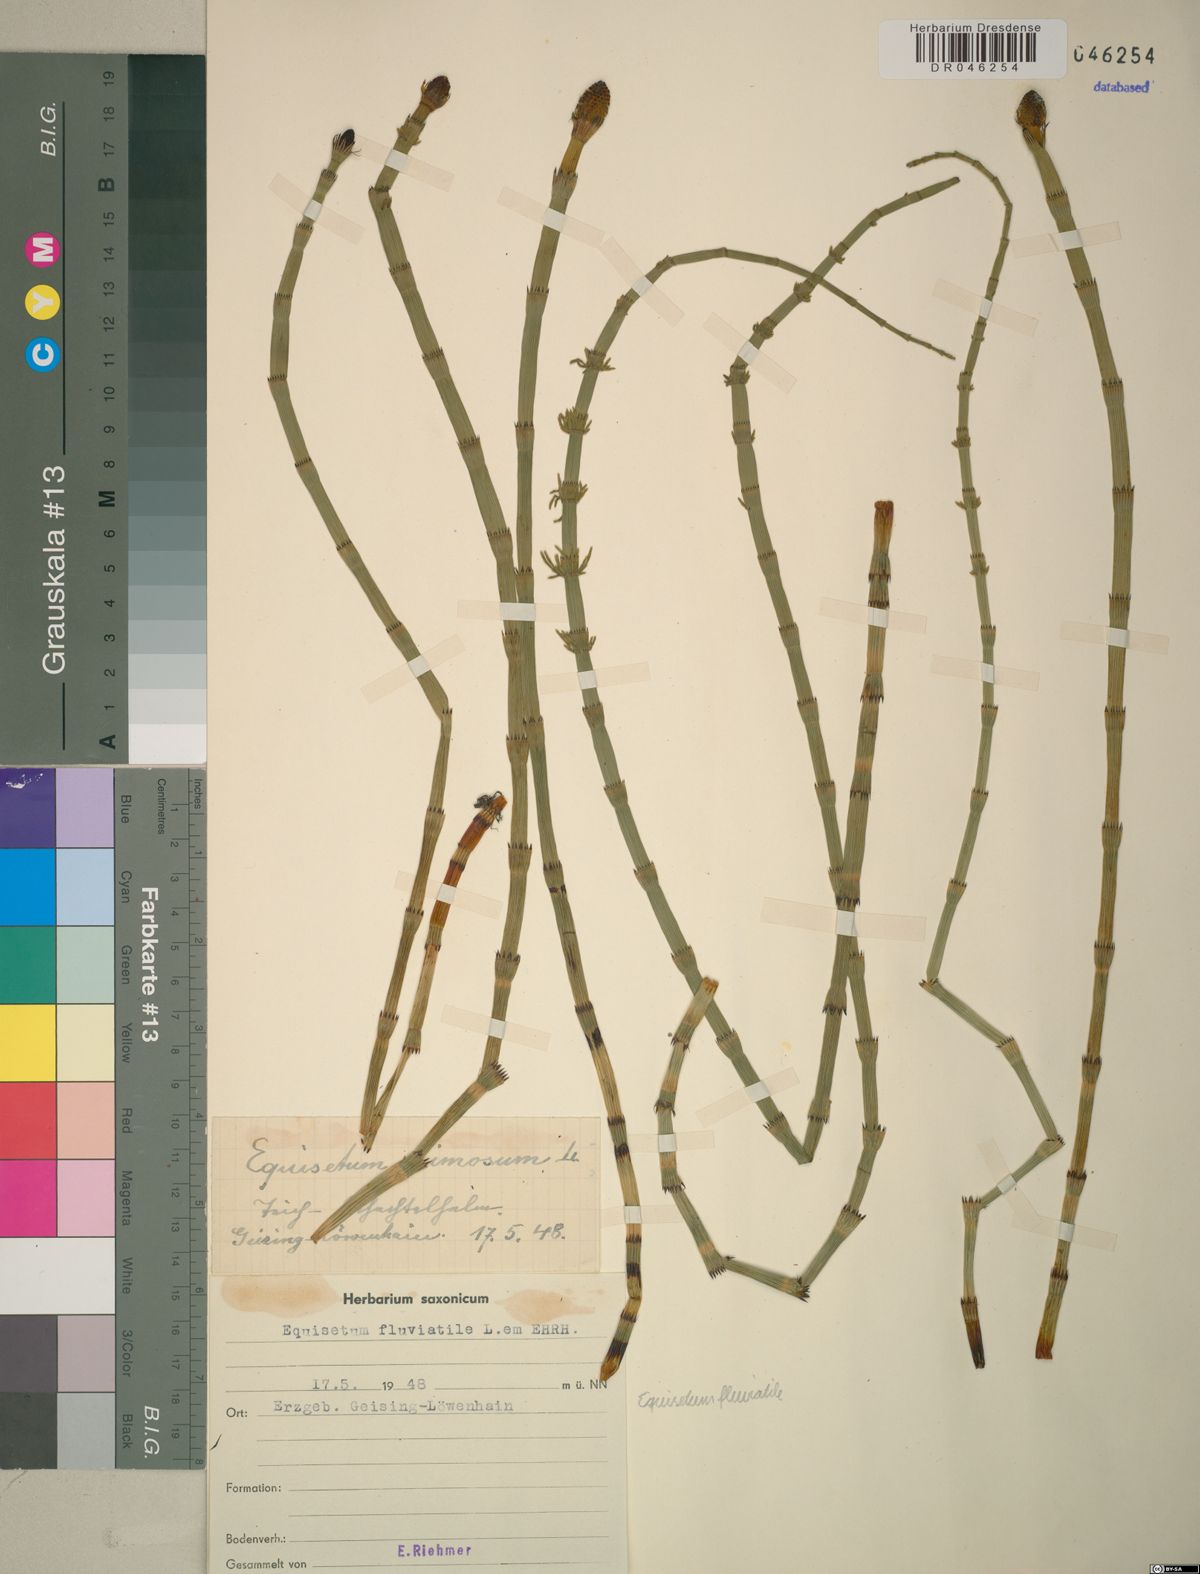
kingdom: Plantae
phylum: Tracheophyta
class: Polypodiopsida
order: Equisetales
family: Equisetaceae
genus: Equisetum
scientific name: Equisetum fluviatile
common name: Water horsetail
